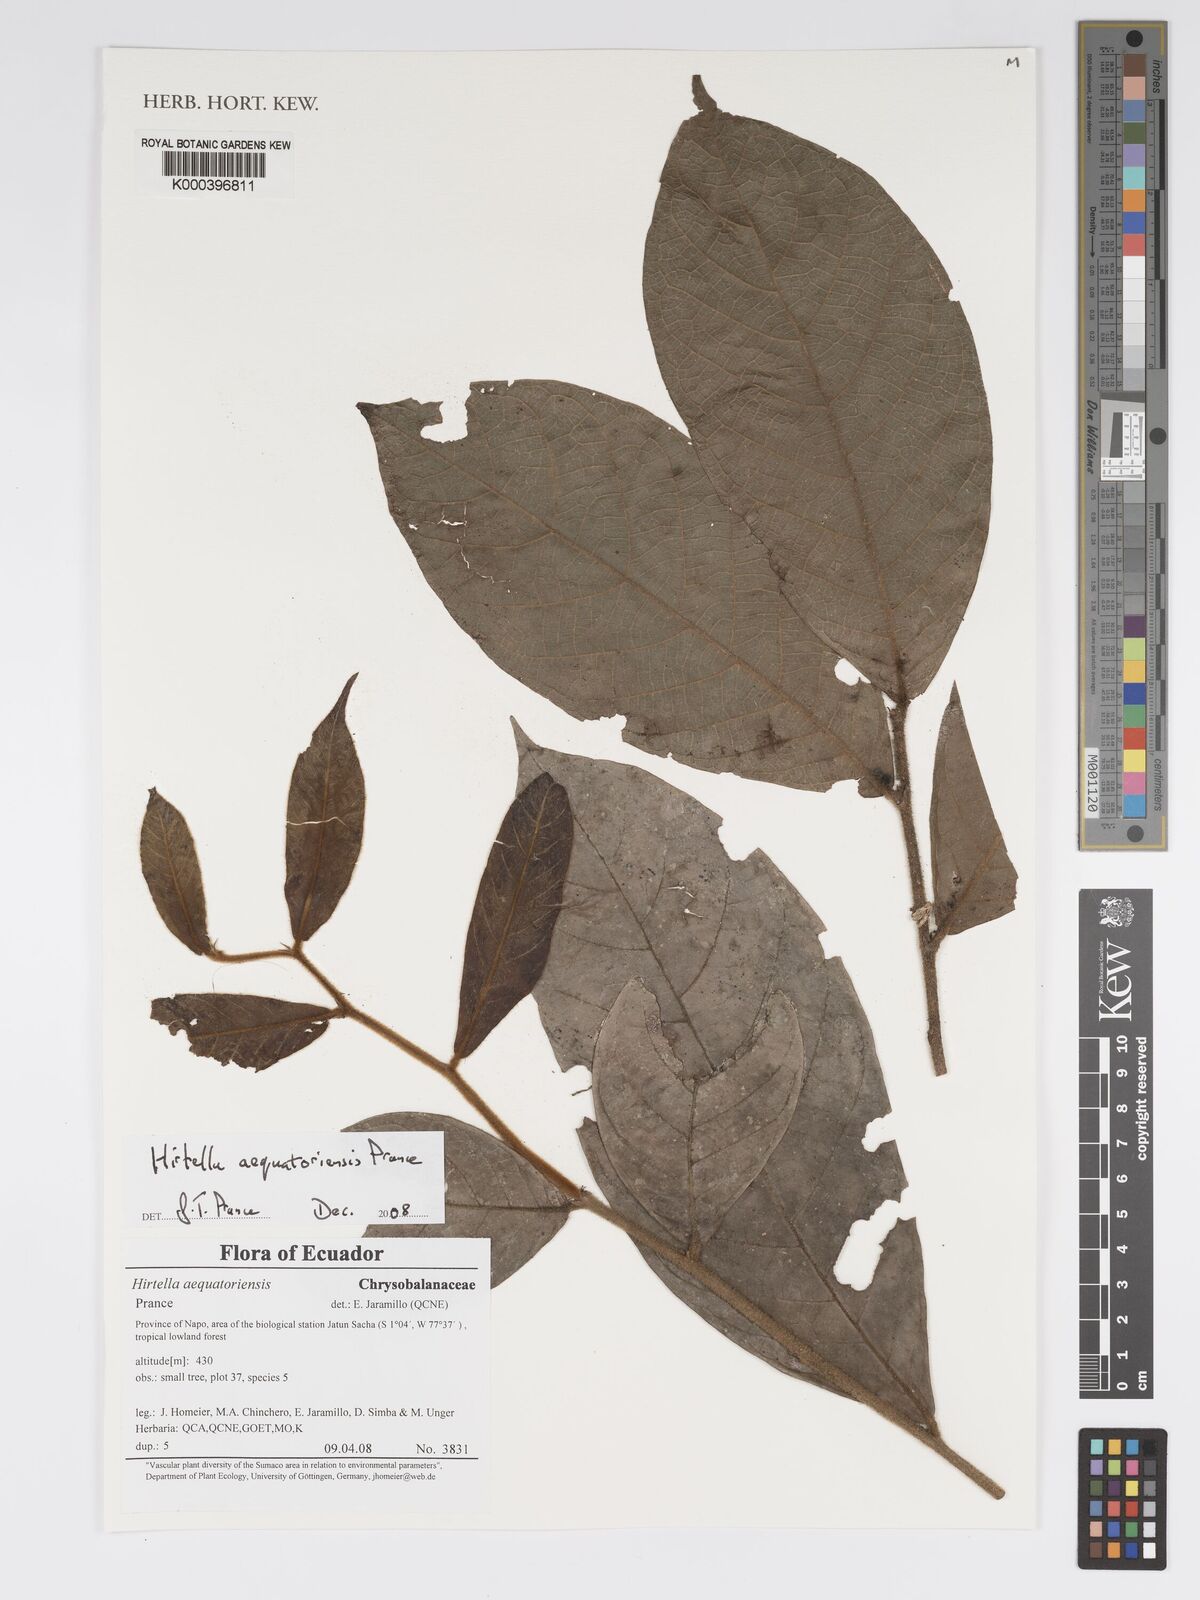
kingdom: Plantae
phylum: Tracheophyta
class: Magnoliopsida
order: Malpighiales
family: Chrysobalanaceae
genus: Hirtella
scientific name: Hirtella aequatoriensis
